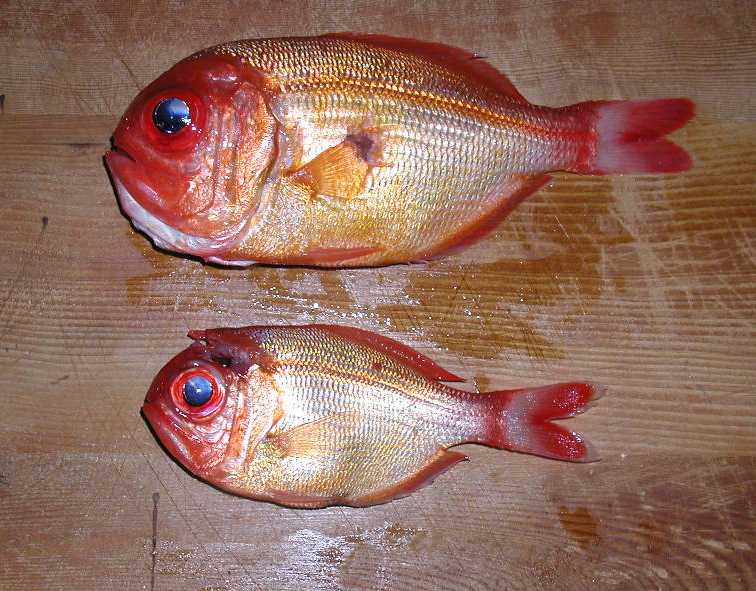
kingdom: Animalia
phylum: Chordata
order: Beryciformes
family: Berycidae
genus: Centroberyx
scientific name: Centroberyx spinosus
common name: Short alfonsino
